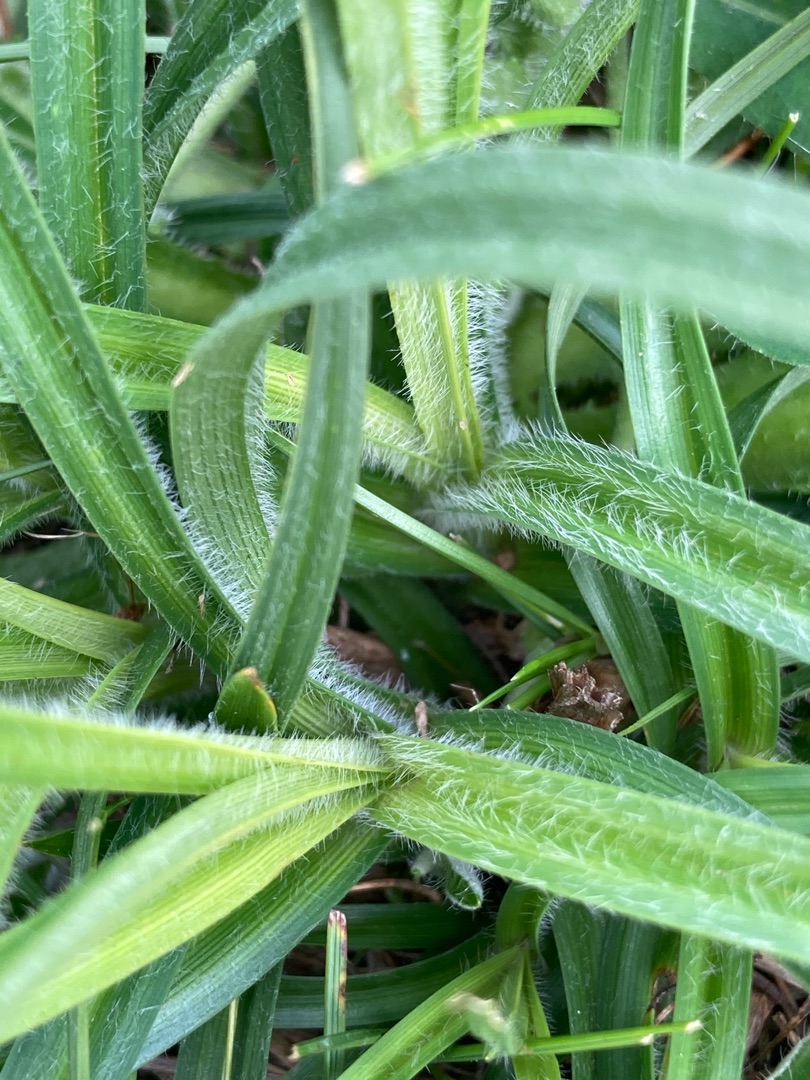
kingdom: Plantae
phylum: Tracheophyta
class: Liliopsida
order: Poales
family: Cyperaceae
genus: Carex
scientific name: Carex hirta
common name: Håret star
